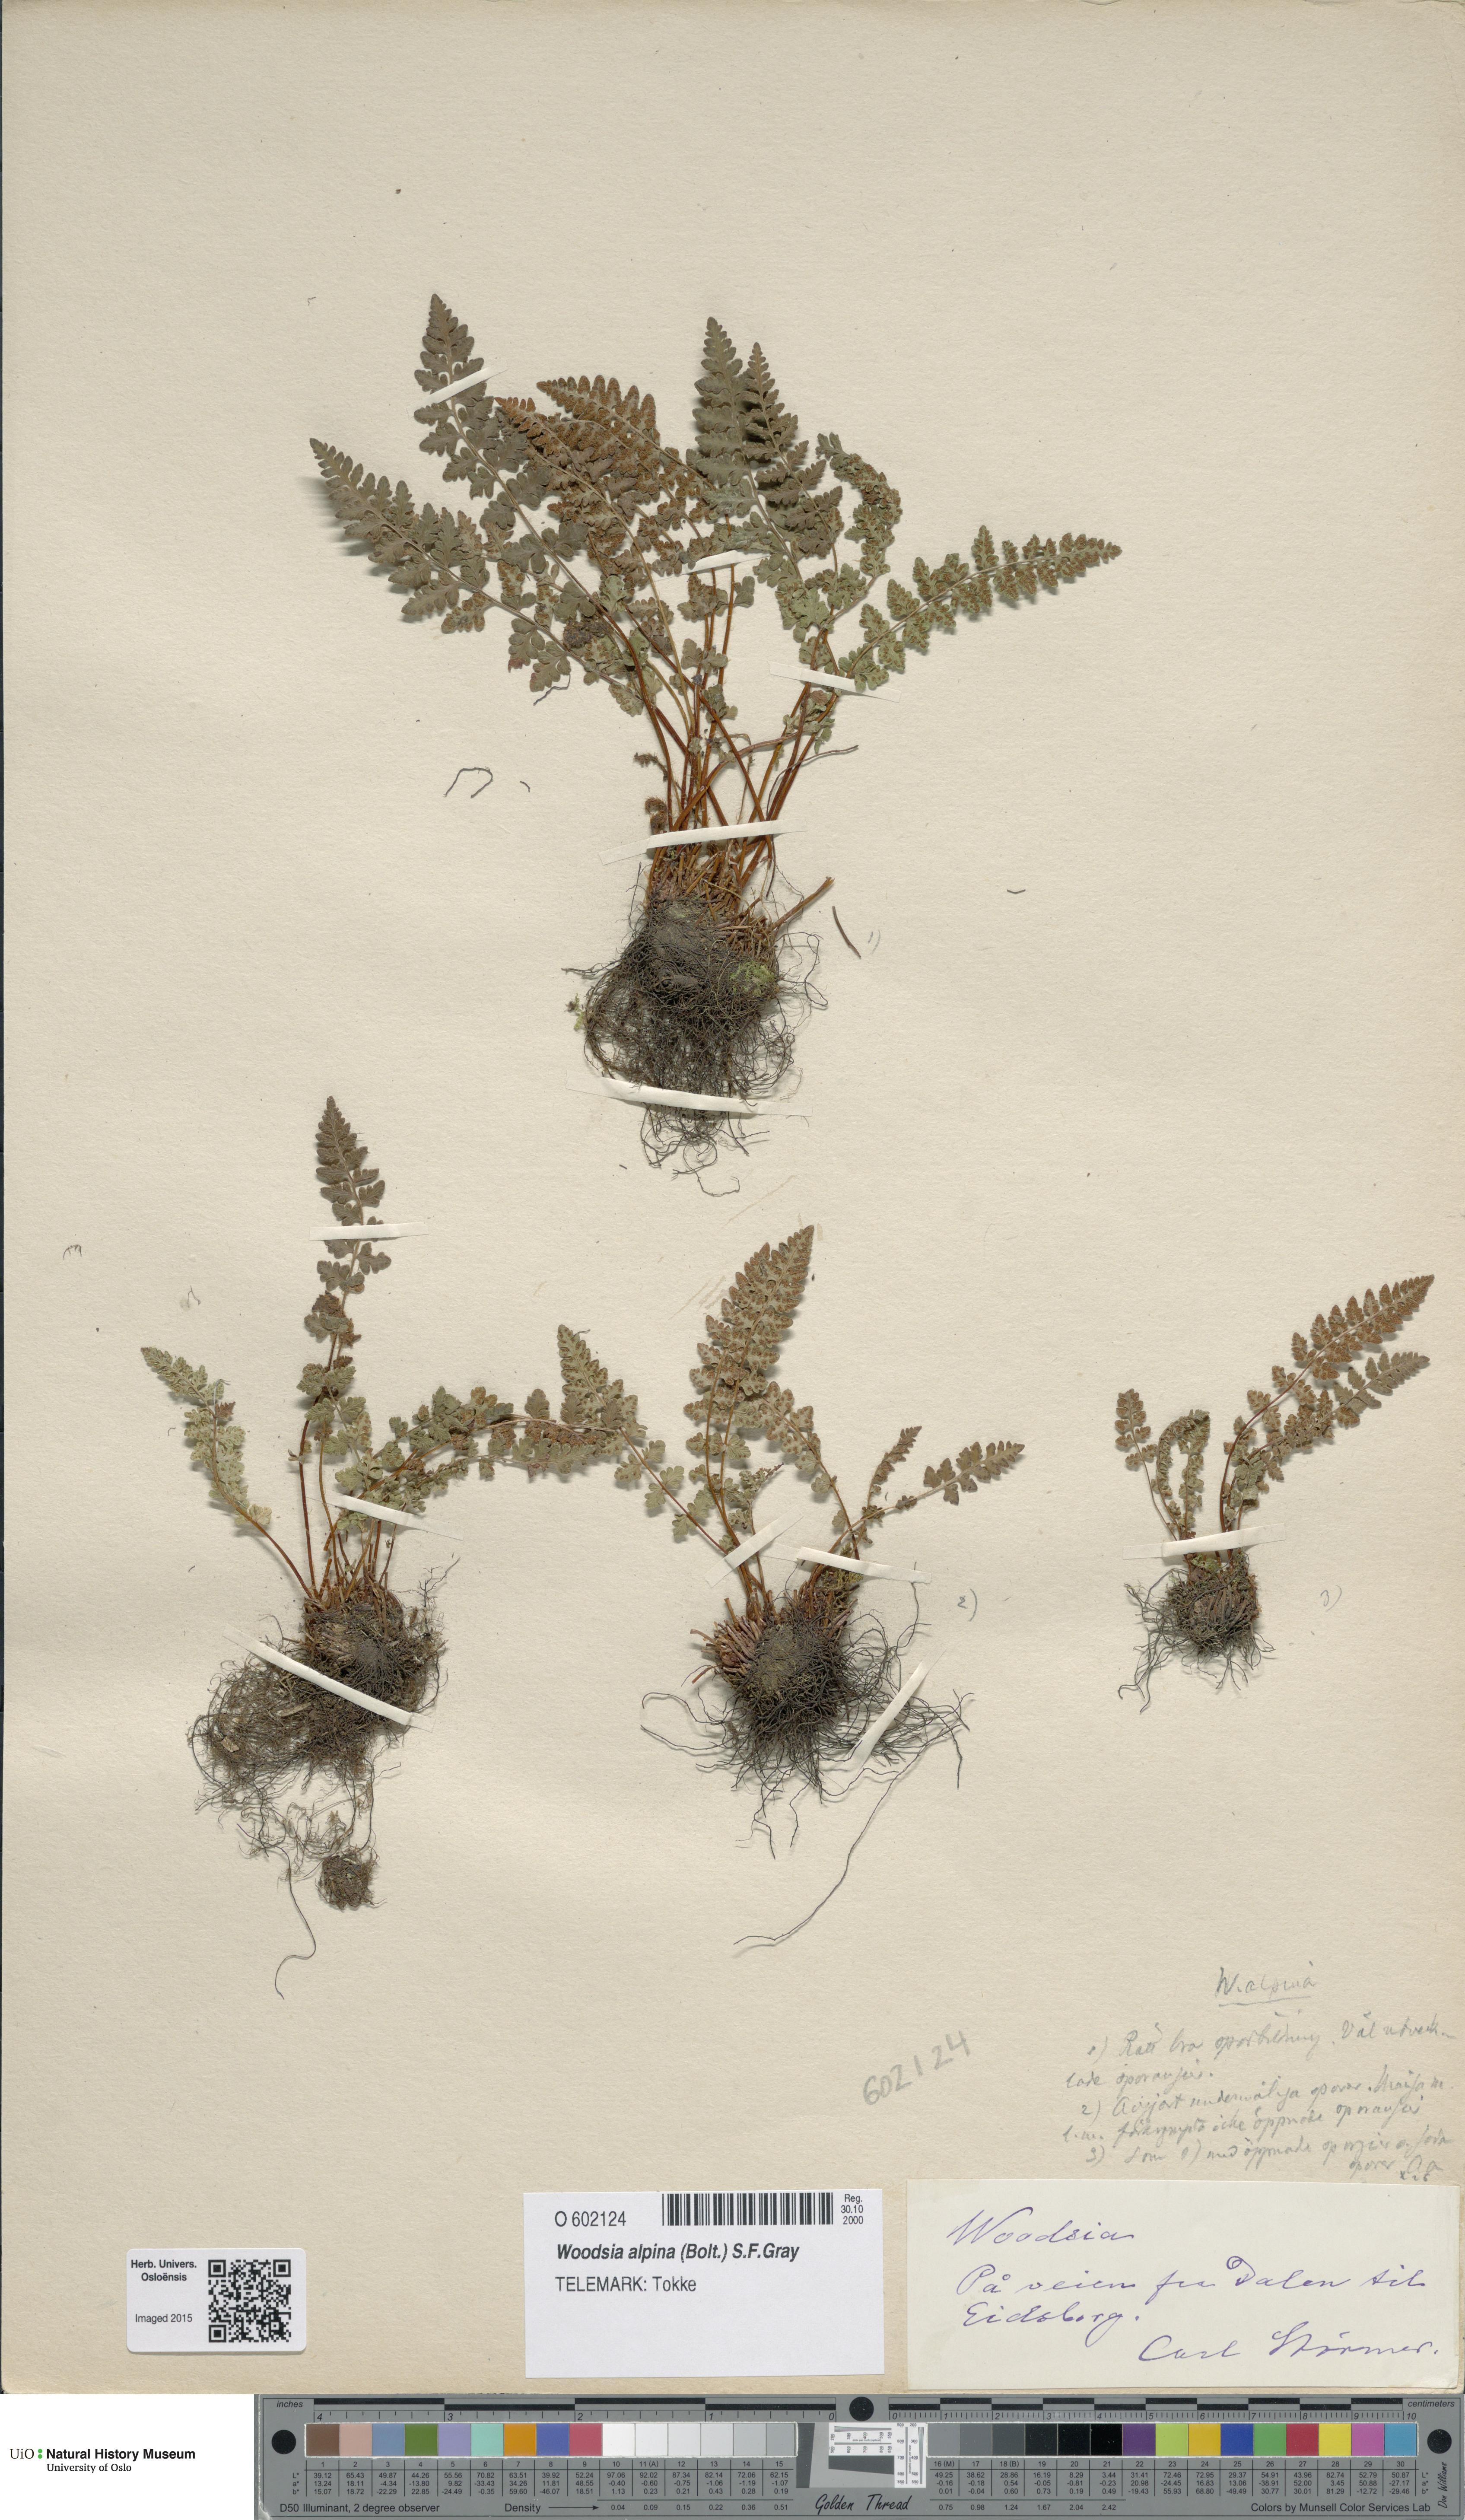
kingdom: Plantae
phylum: Tracheophyta
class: Polypodiopsida
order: Polypodiales
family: Woodsiaceae
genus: Woodsia
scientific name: Woodsia alpina
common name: Alpine woodsia
